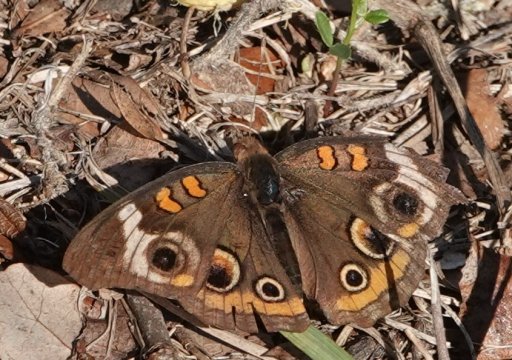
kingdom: Animalia
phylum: Arthropoda
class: Insecta
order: Lepidoptera
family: Nymphalidae
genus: Junonia
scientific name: Junonia coenia
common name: Common Buckeye
